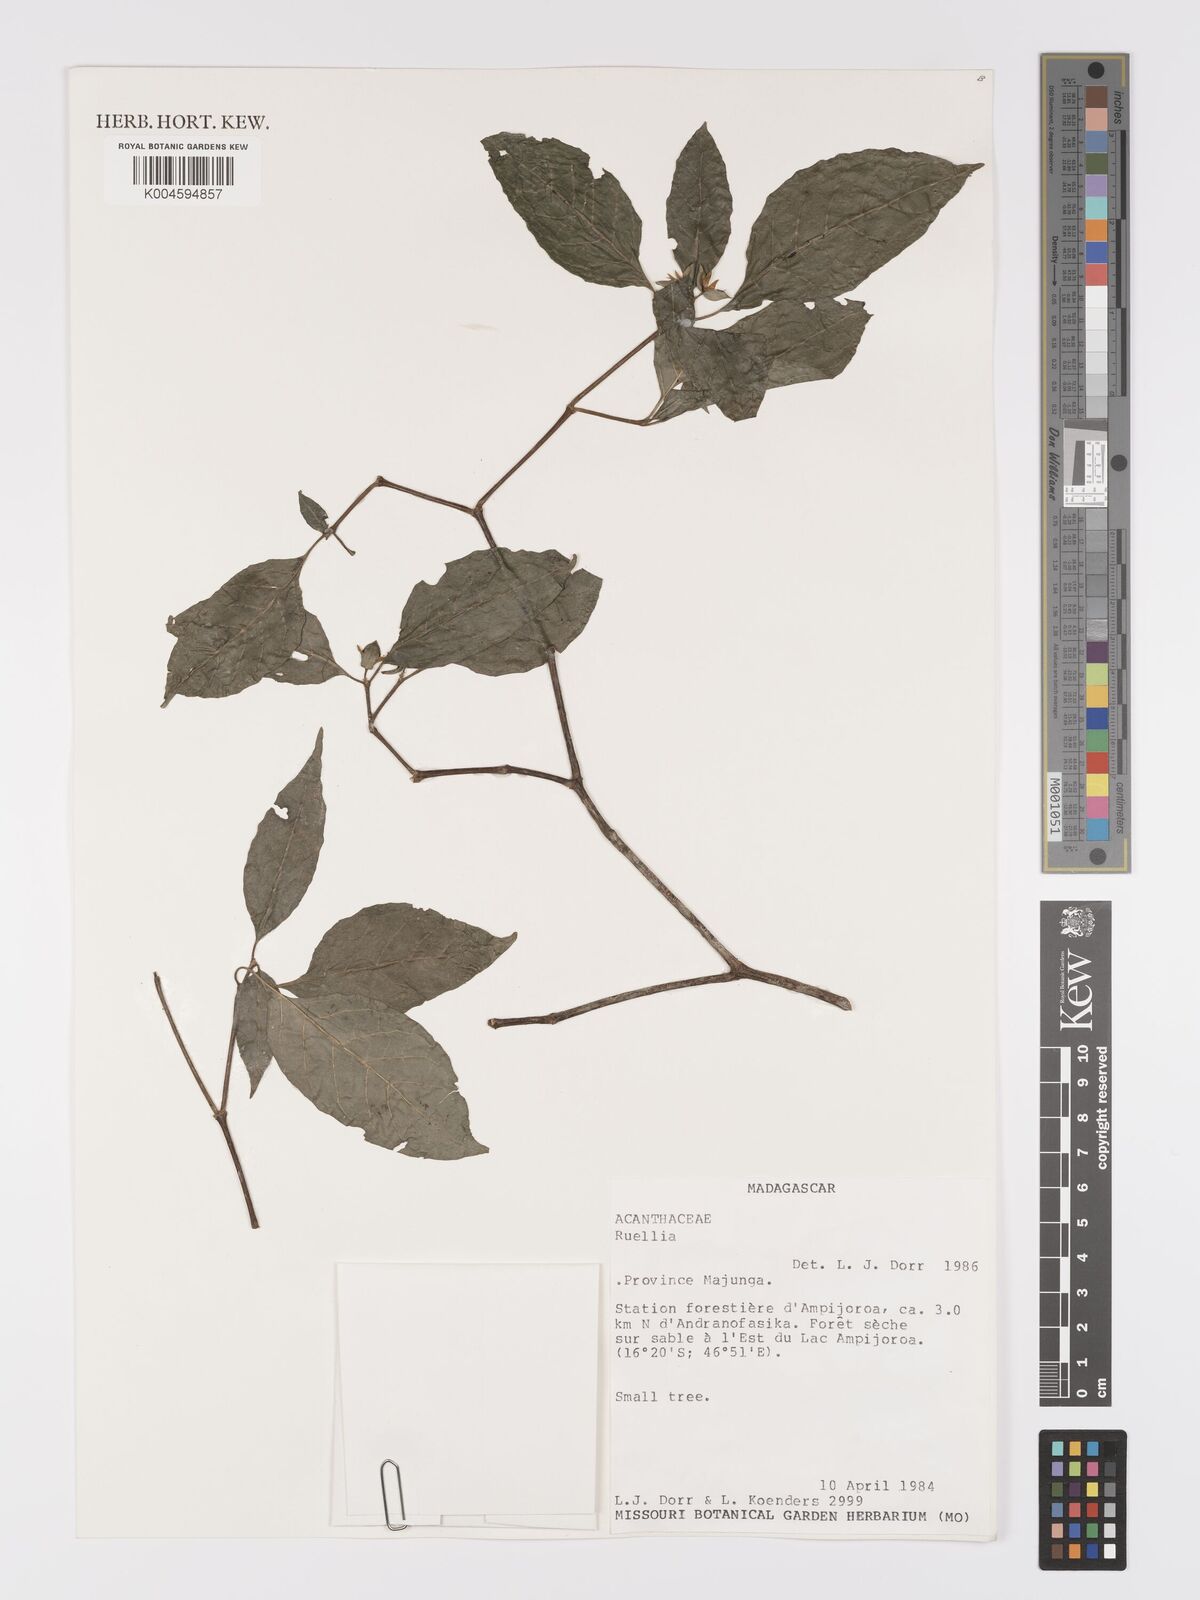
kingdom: Plantae
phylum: Tracheophyta
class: Magnoliopsida
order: Lamiales
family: Acanthaceae
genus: Leandriella
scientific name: Leandriella valvata
